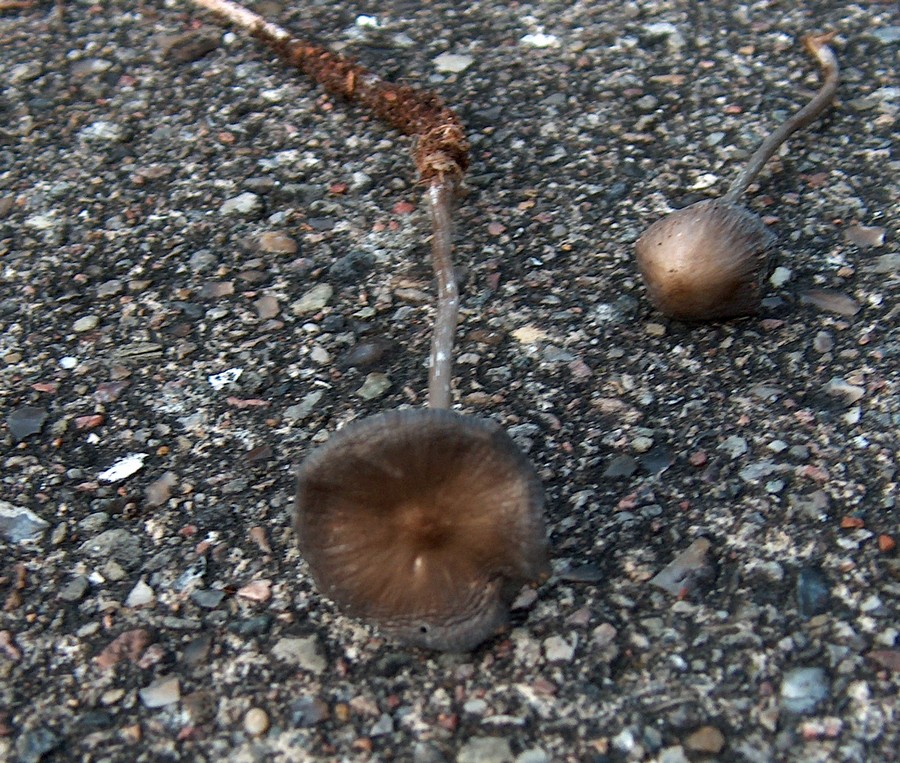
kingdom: Fungi
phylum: Basidiomycota
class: Agaricomycetes
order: Agaricales
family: Mycenaceae
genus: Mycena
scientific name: Mycena polygramma
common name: mangestribet huesvamp
